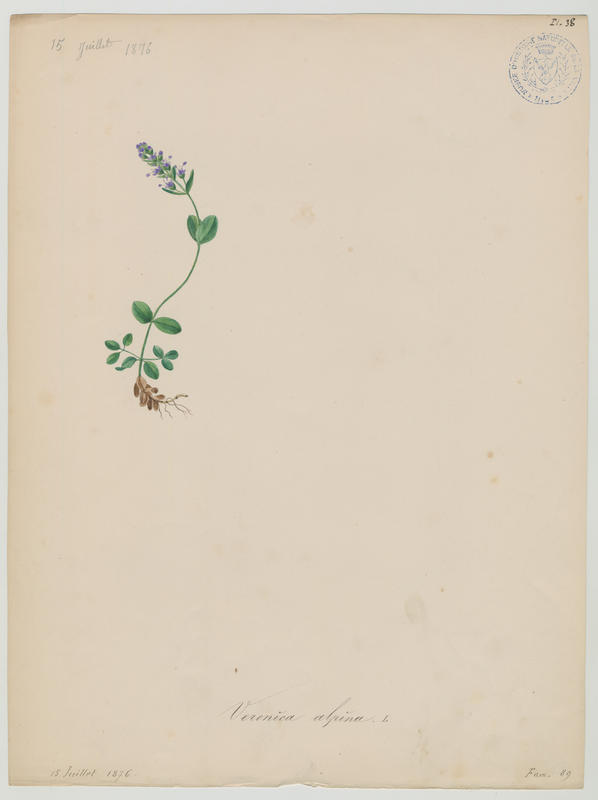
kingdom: Plantae
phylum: Tracheophyta
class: Magnoliopsida
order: Lamiales
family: Plantaginaceae
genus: Veronica
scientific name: Veronica alpina
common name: Alpine speedwell
